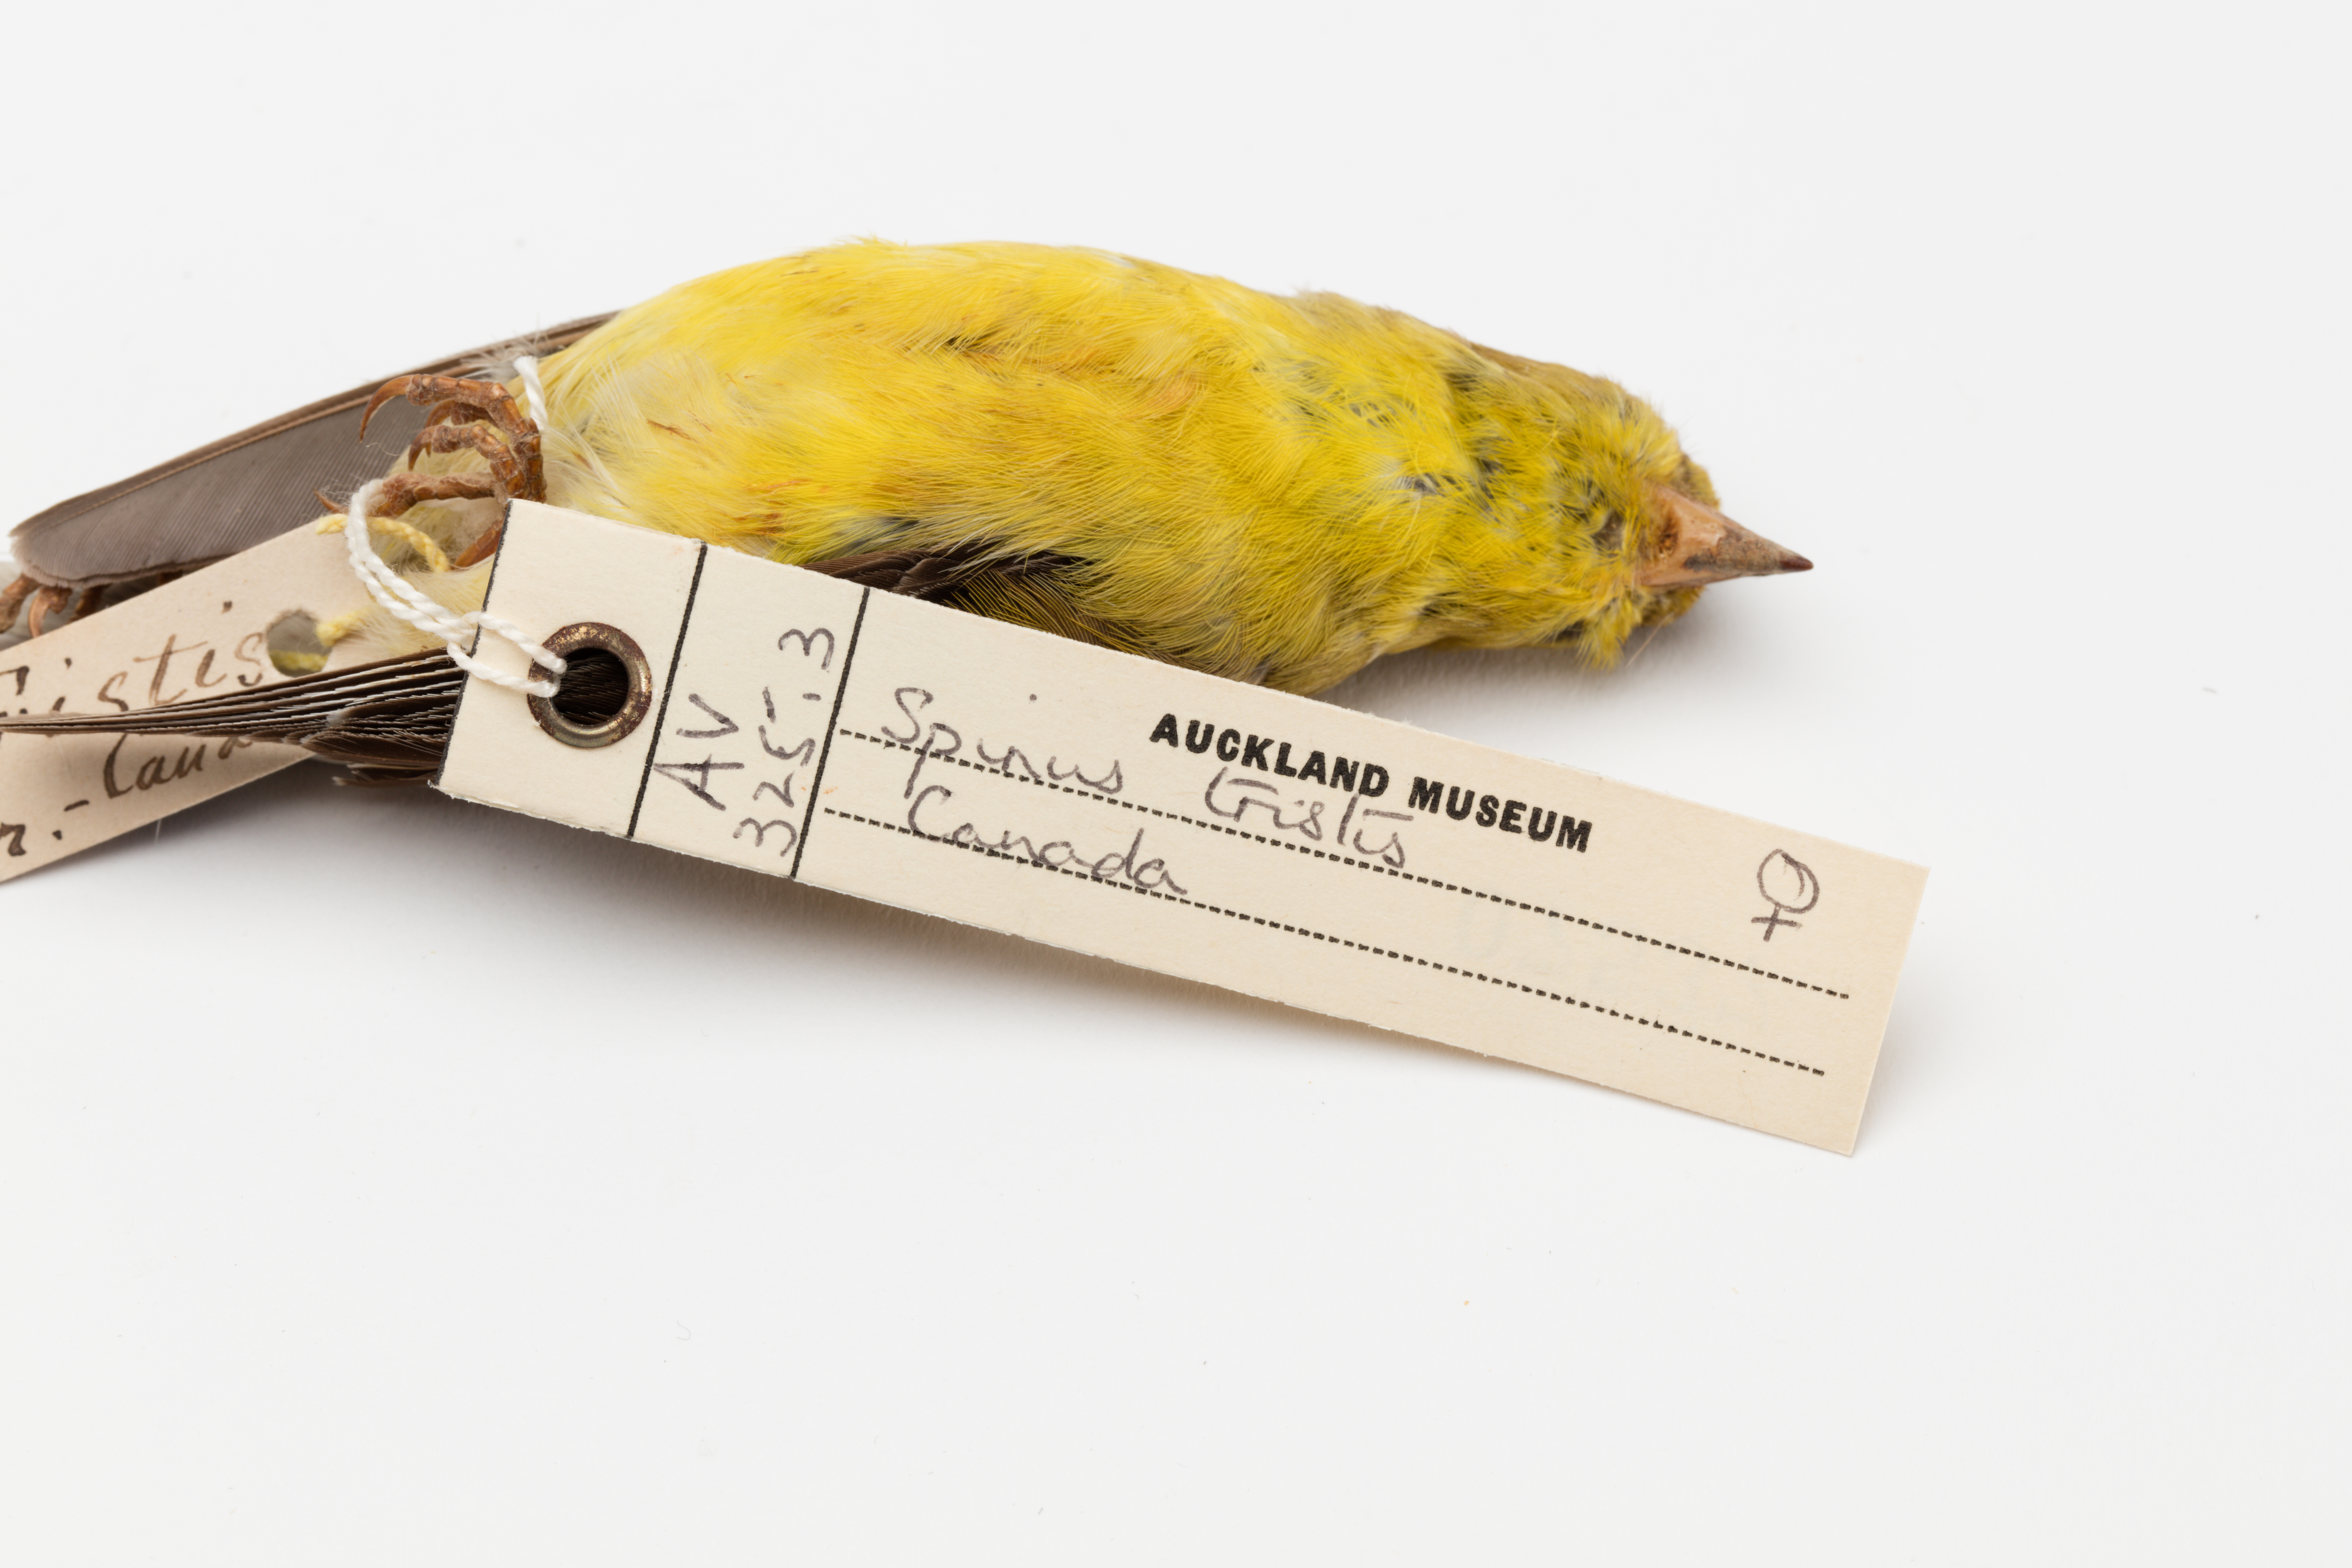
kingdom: Animalia
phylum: Chordata
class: Aves
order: Passeriformes
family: Fringillidae
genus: Spinus
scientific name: Spinus tristis
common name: American goldfinch
